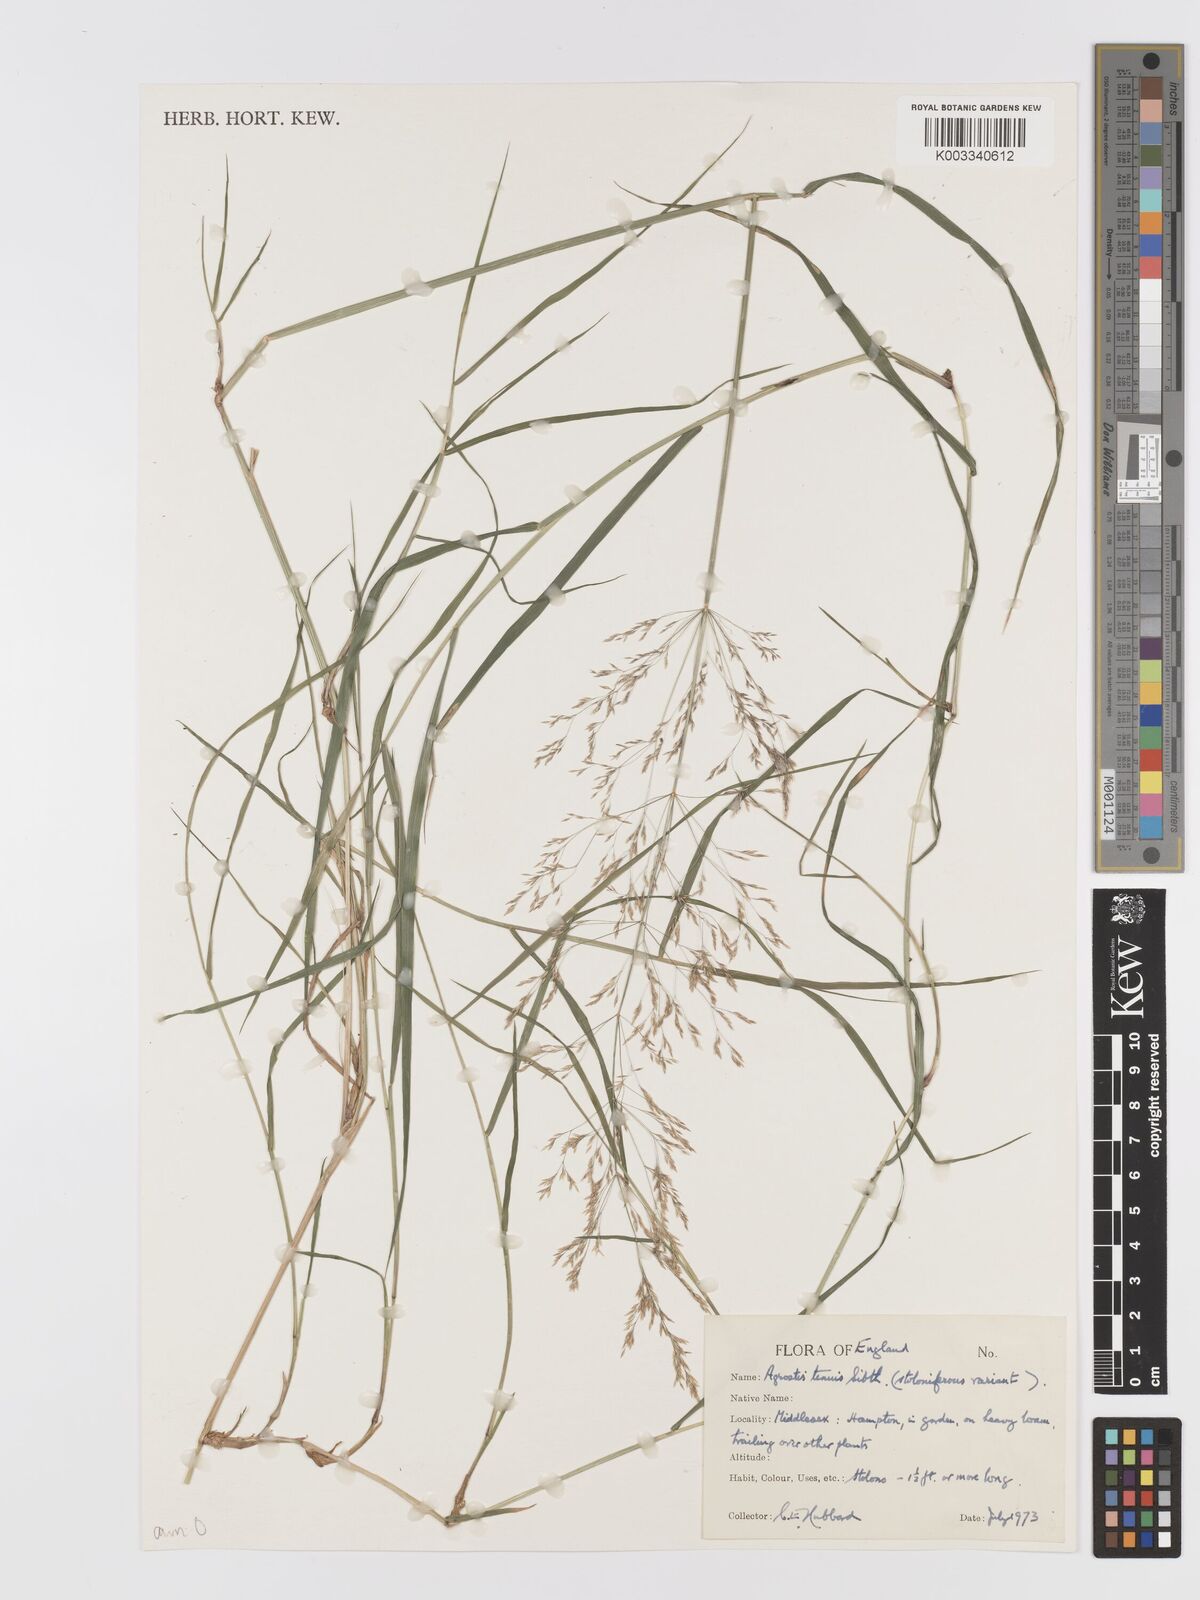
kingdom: Plantae
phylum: Tracheophyta
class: Liliopsida
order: Poales
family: Poaceae
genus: Agrostis
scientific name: Agrostis capillaris
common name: Colonial bentgrass
